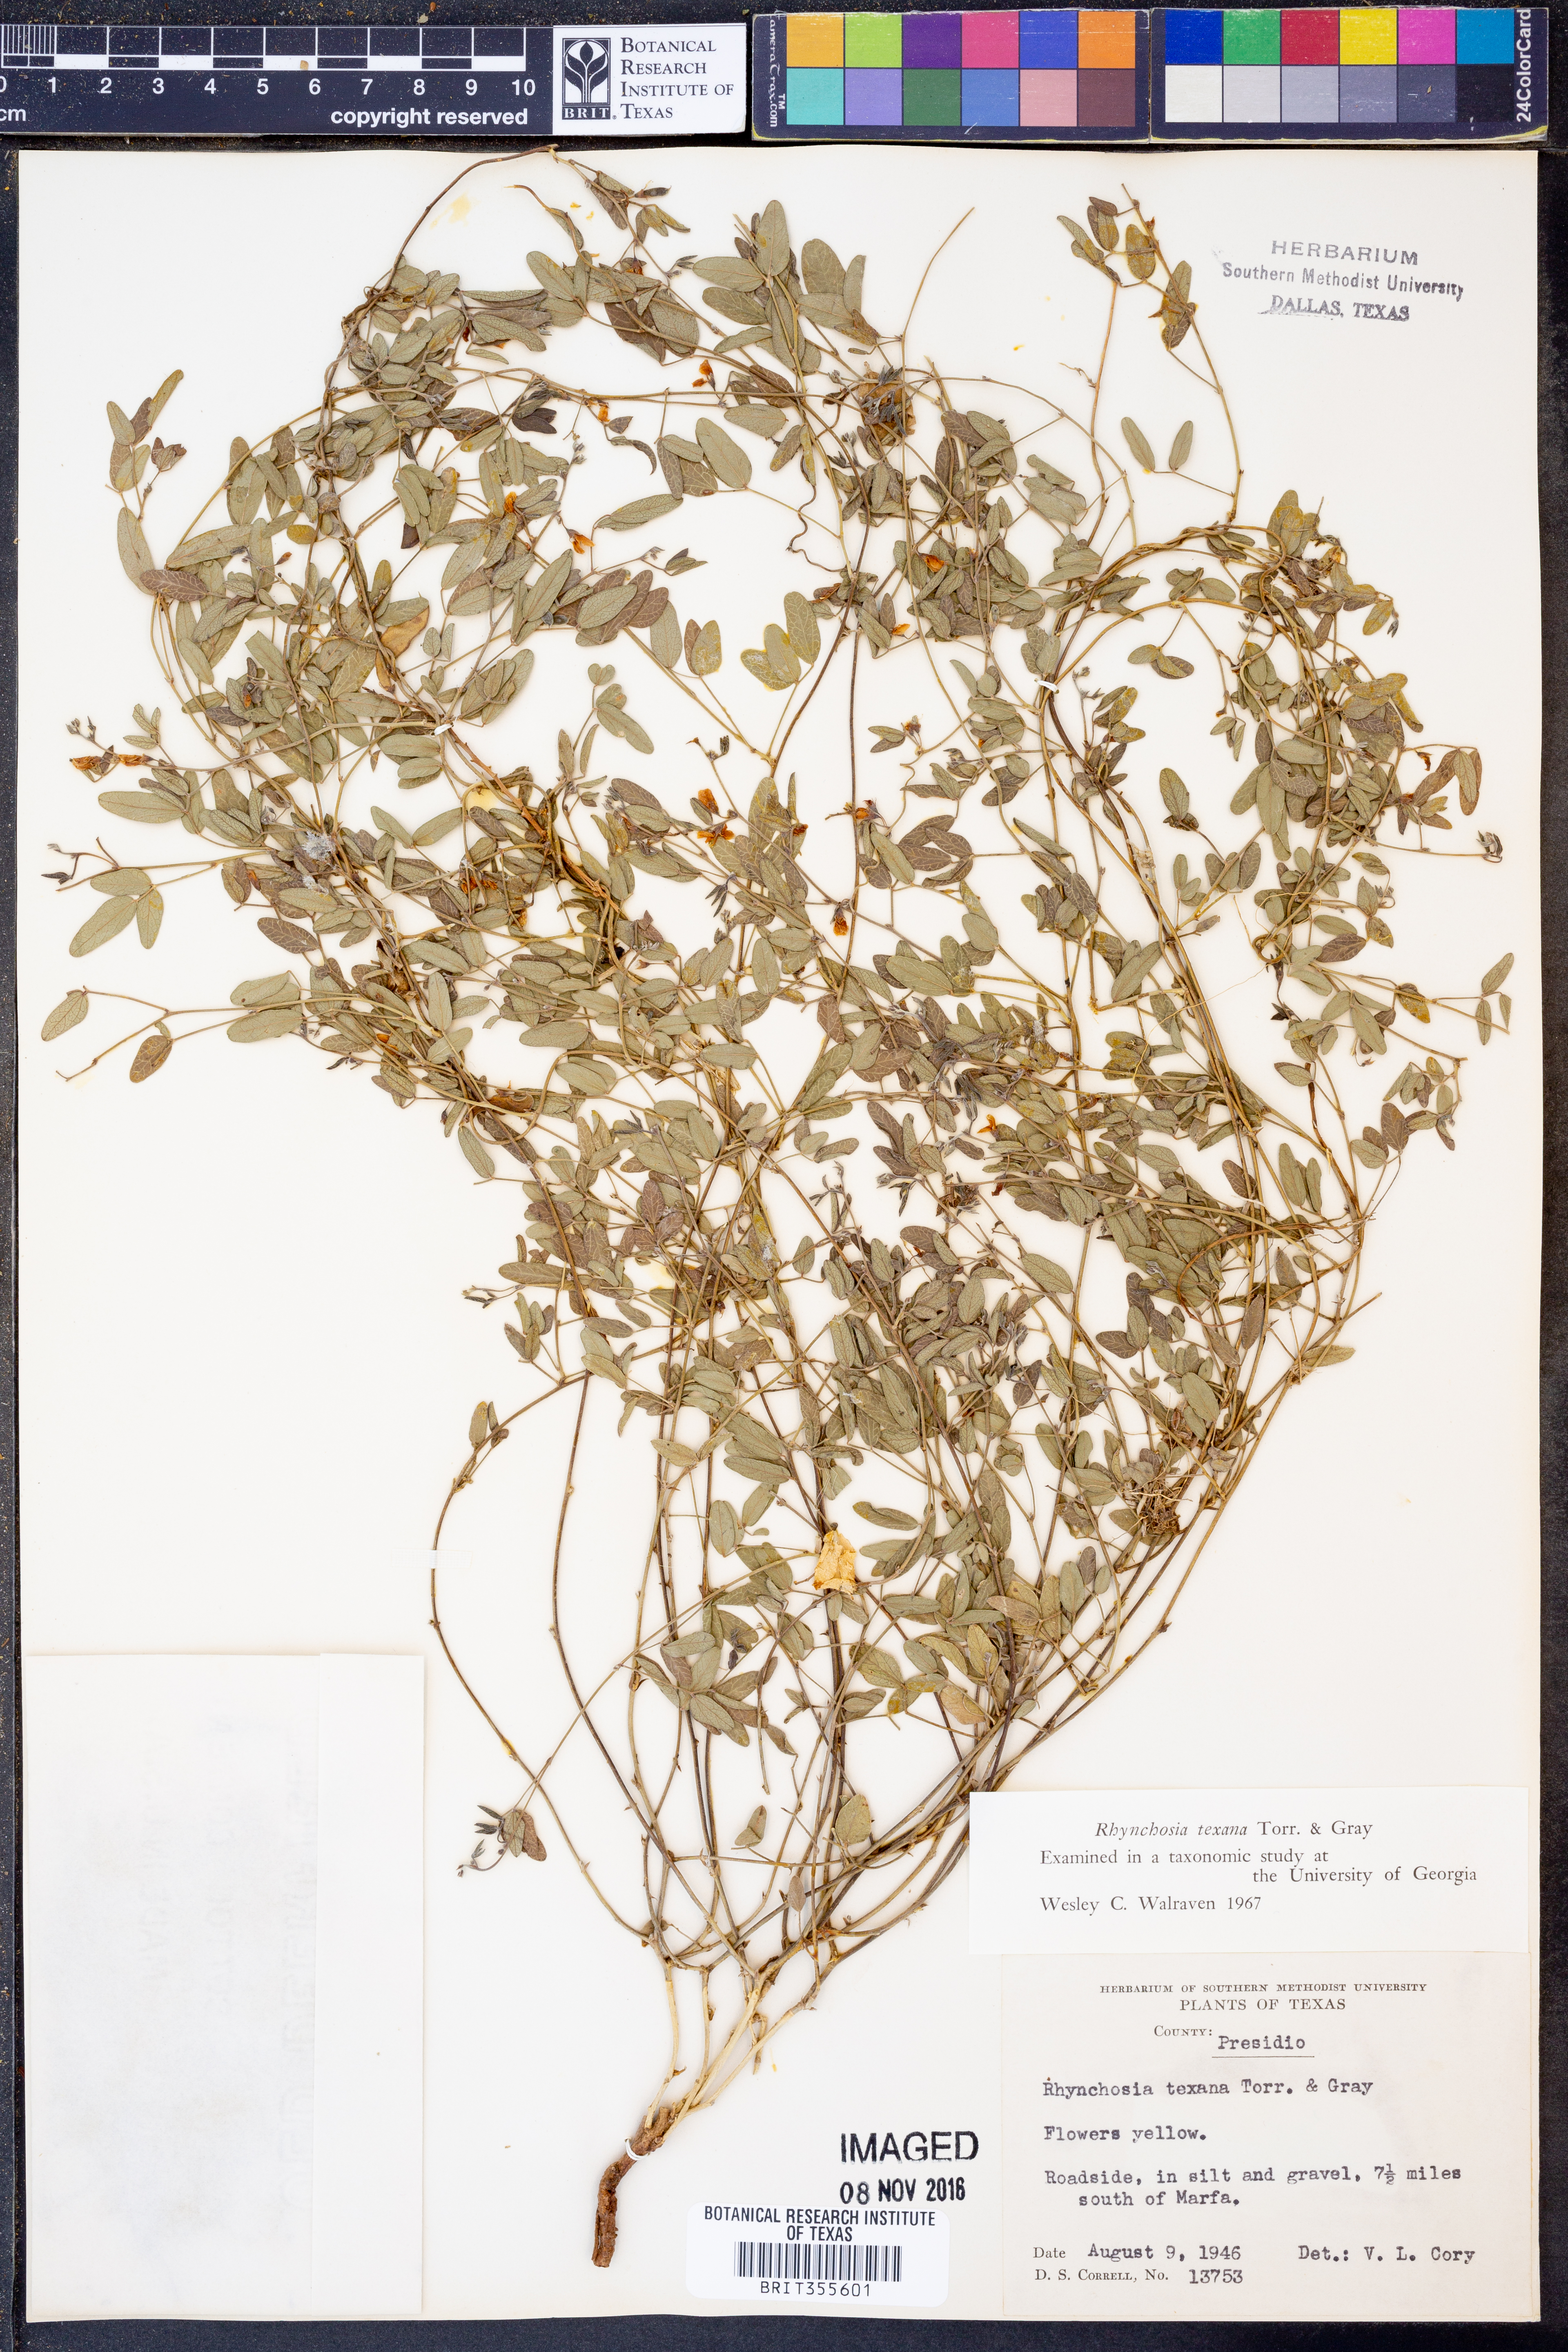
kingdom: Plantae
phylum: Tracheophyta
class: Magnoliopsida
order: Fabales
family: Fabaceae
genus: Rhynchosia
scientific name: Rhynchosia senna
